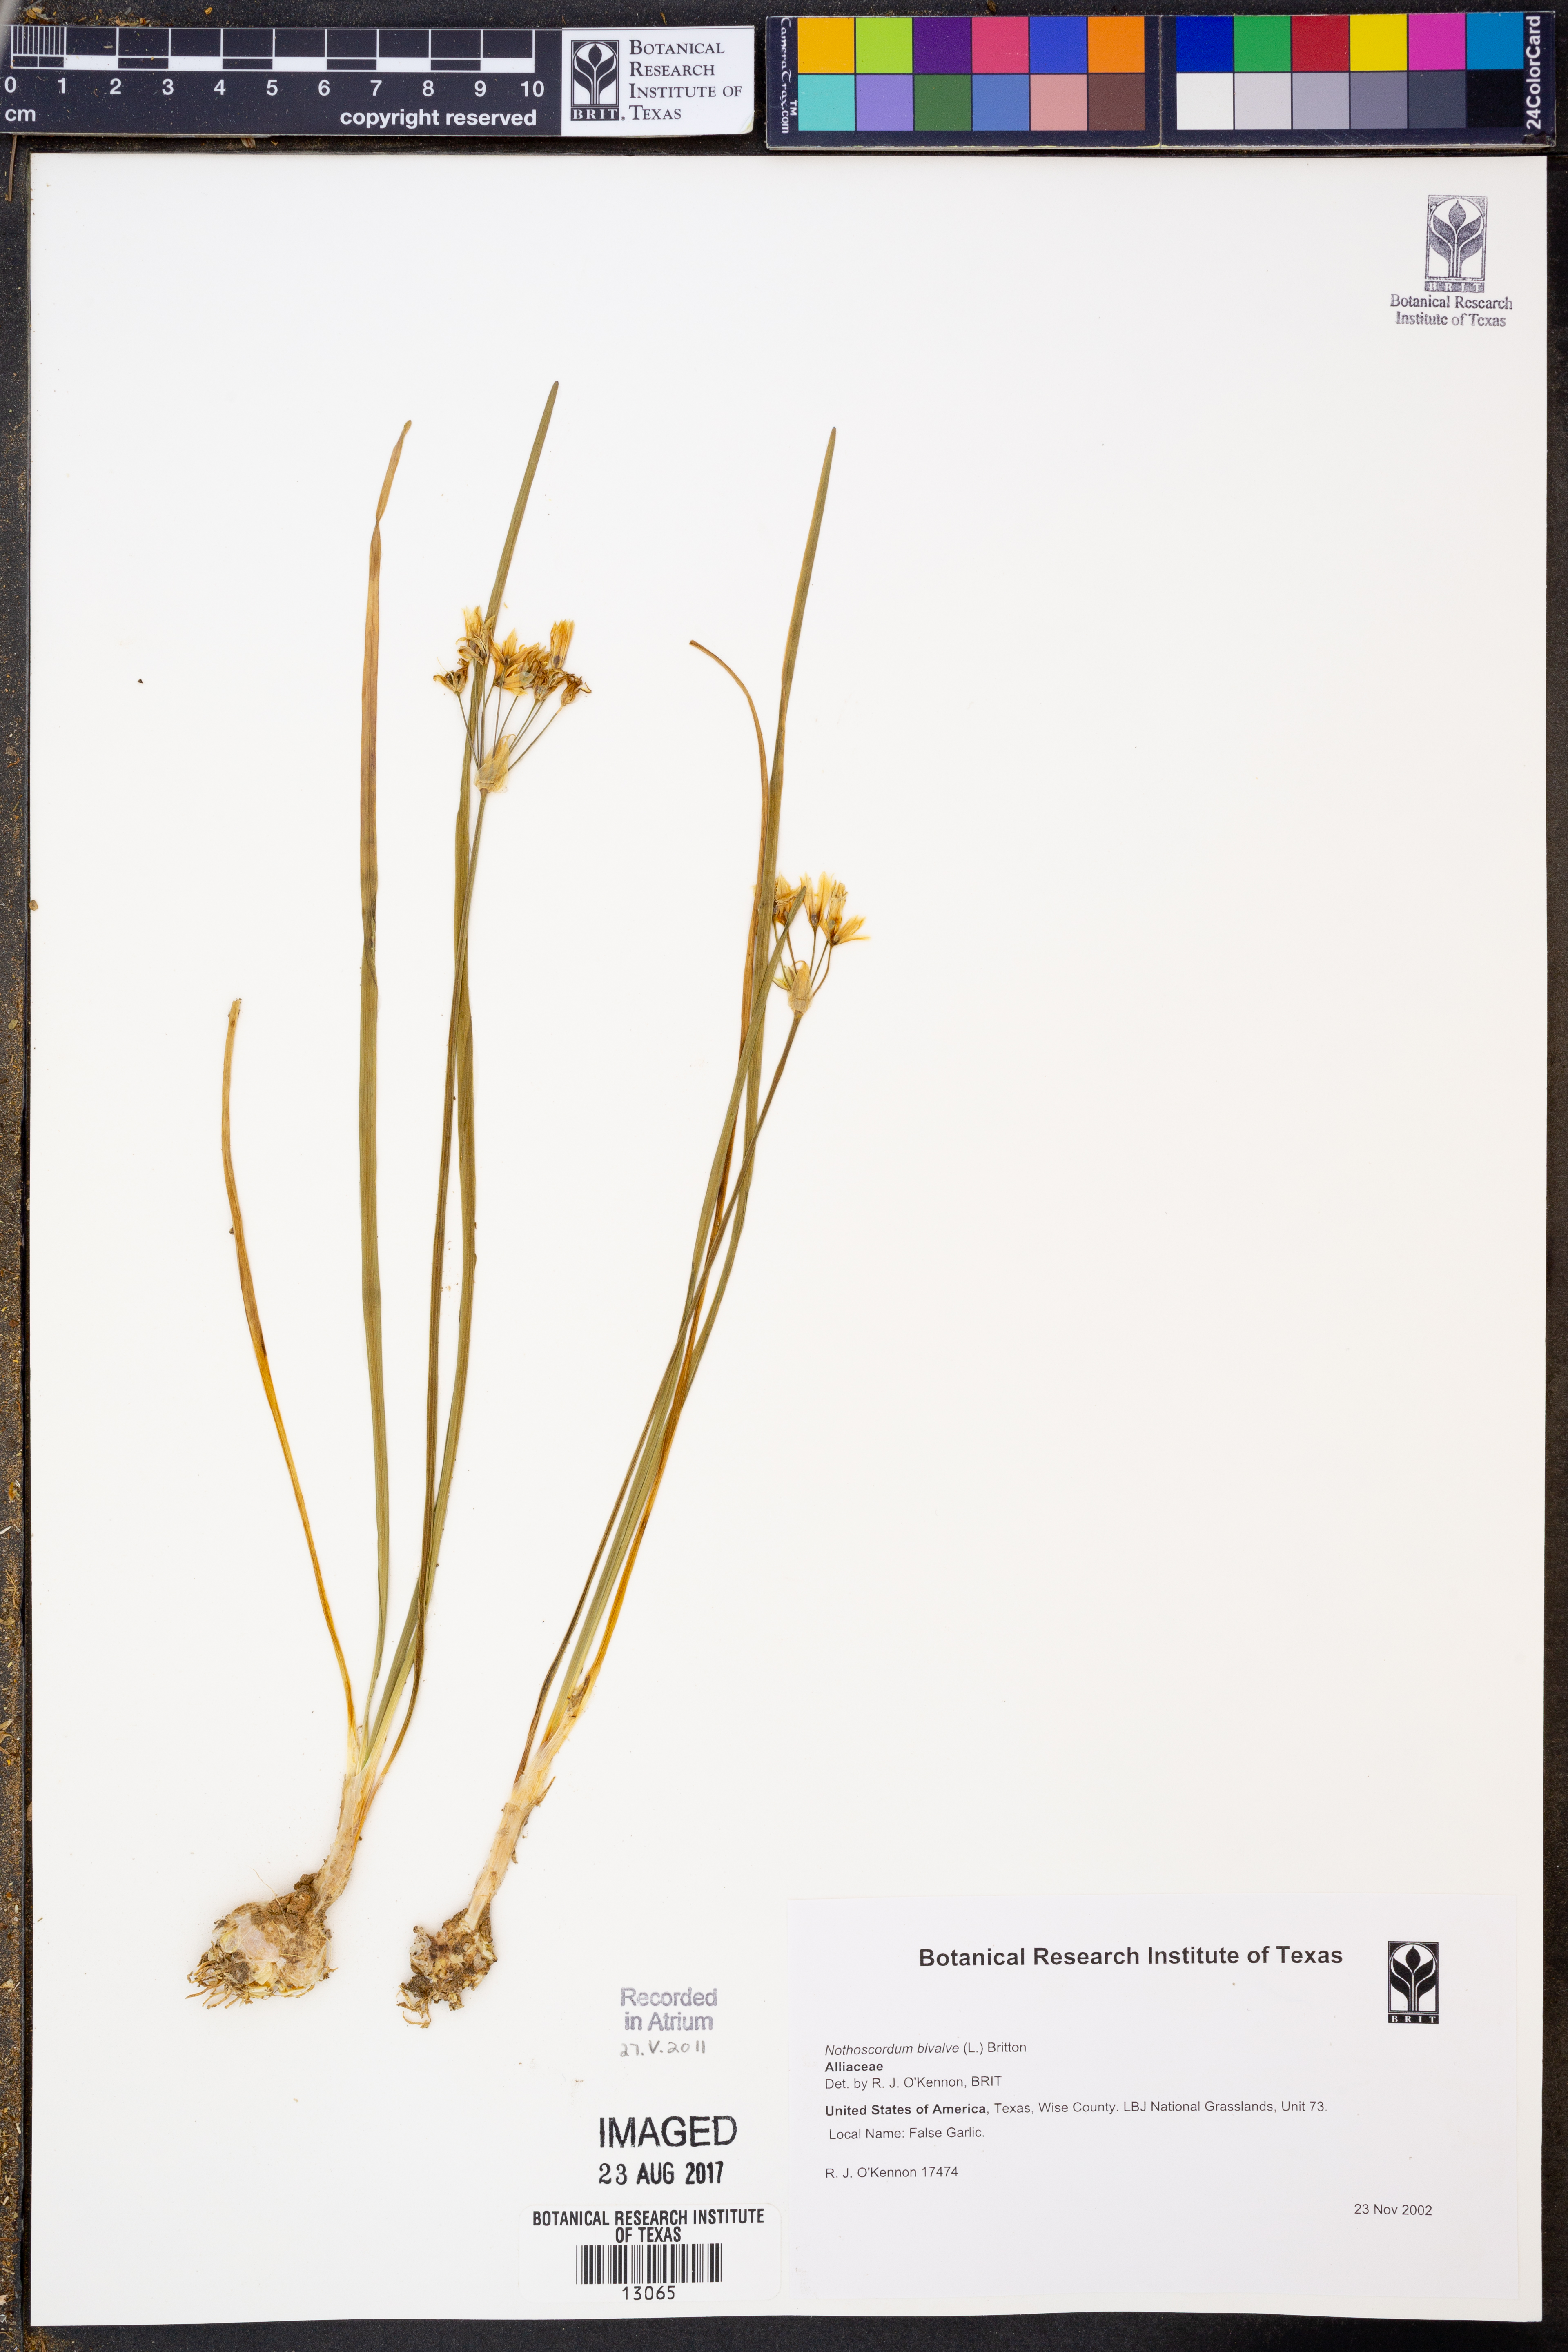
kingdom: Plantae
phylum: Tracheophyta
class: Liliopsida
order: Asparagales
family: Amaryllidaceae
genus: Nothoscordum
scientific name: Nothoscordum bivalve
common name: Crow-poison
